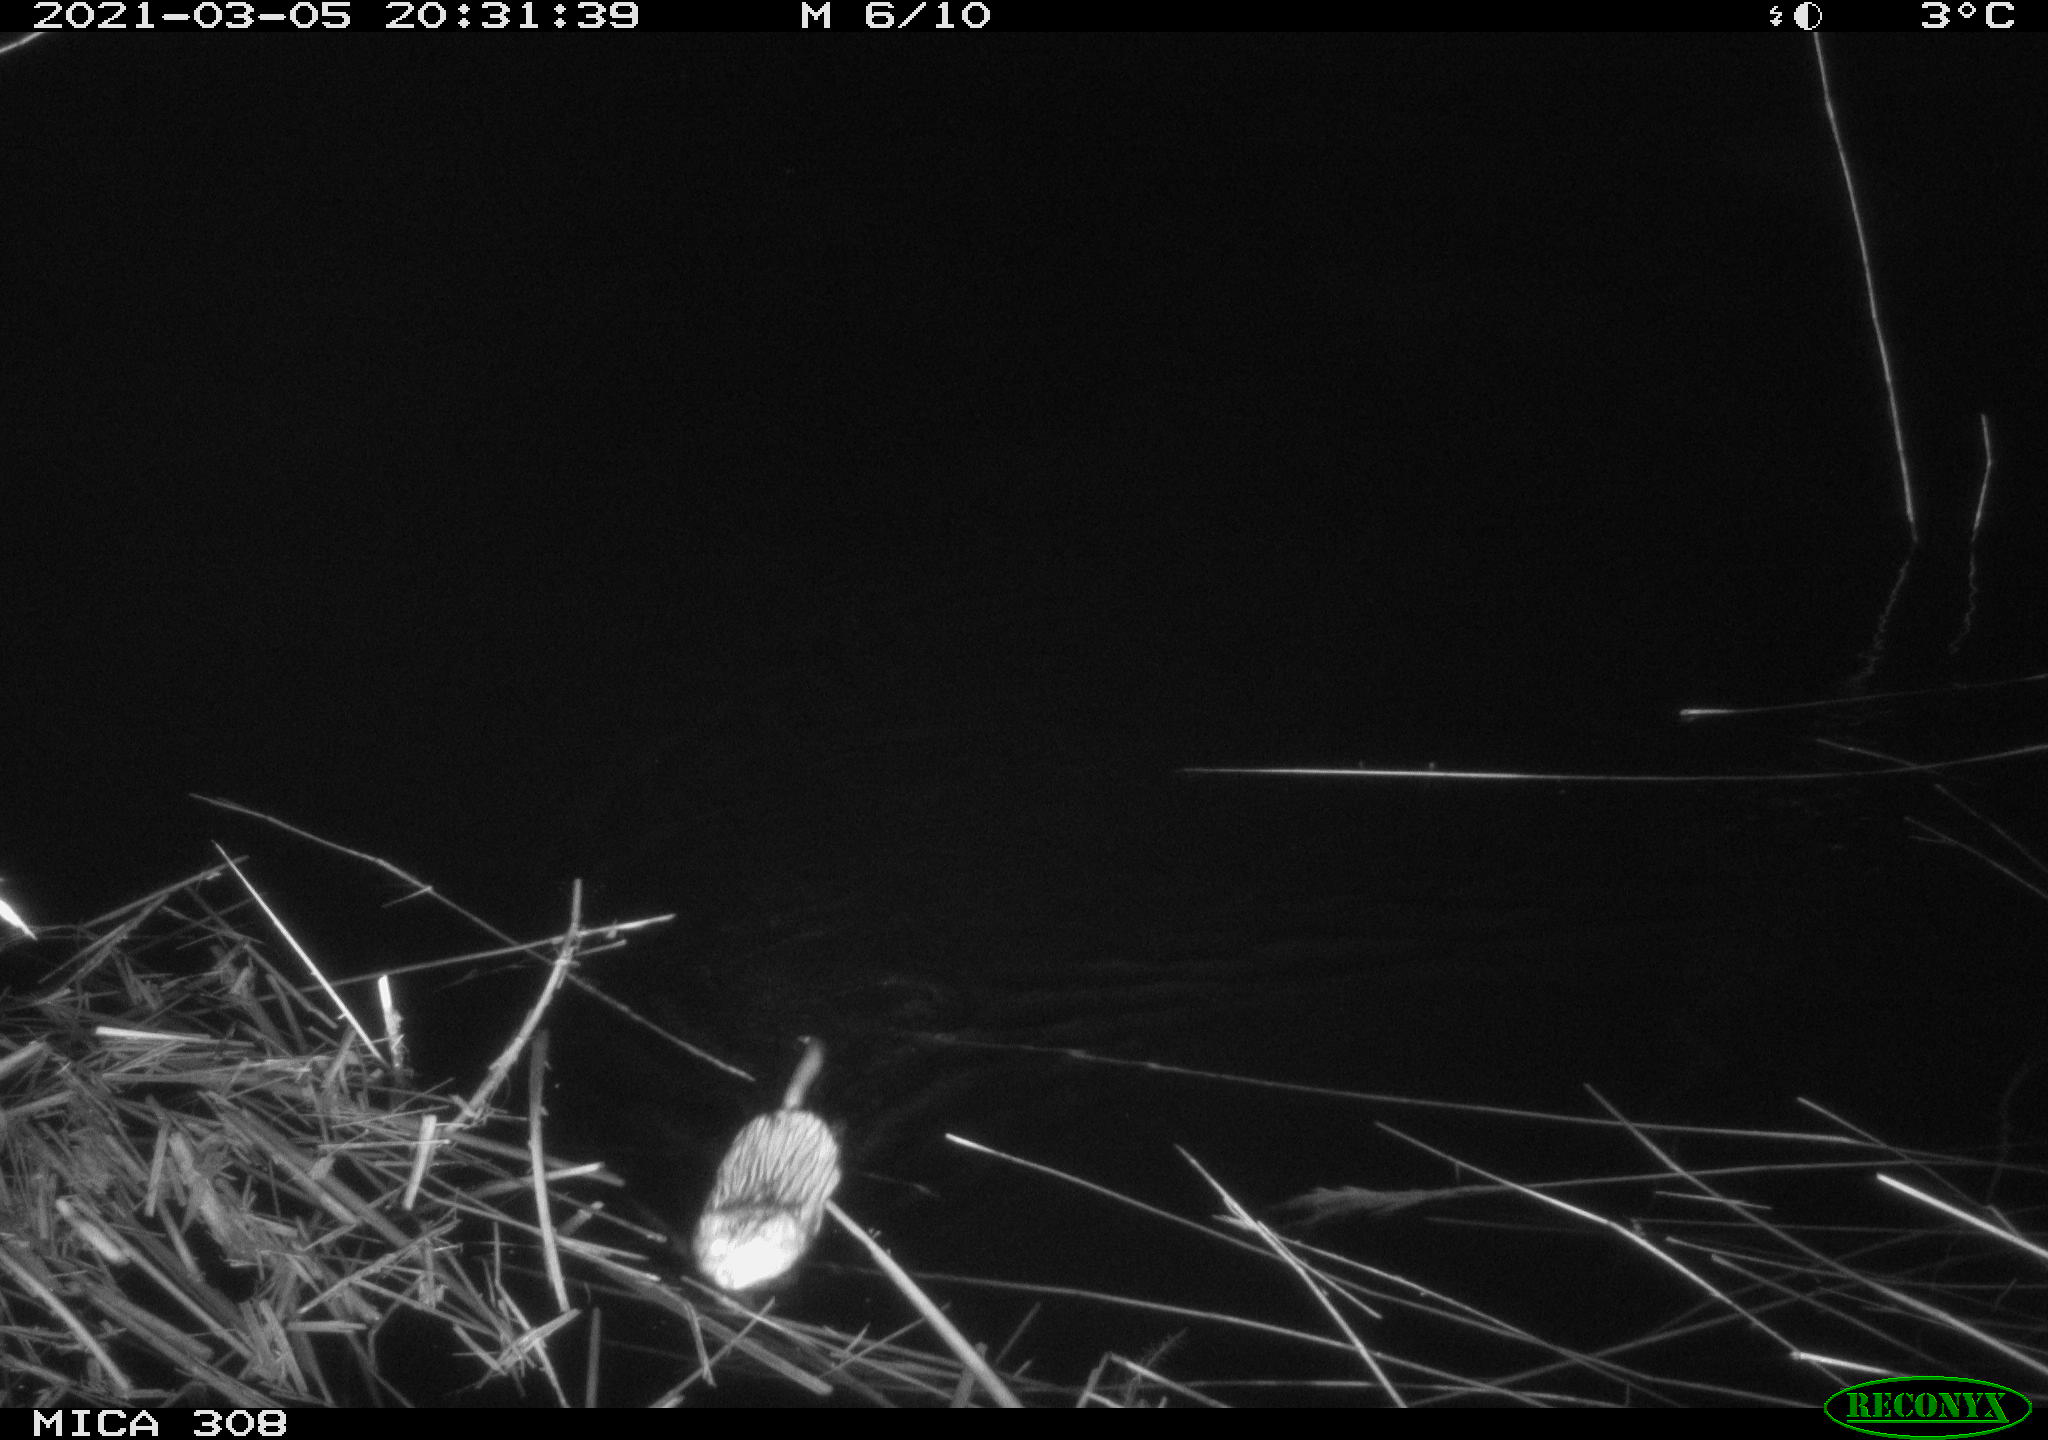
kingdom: Animalia
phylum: Chordata
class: Mammalia
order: Rodentia
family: Cricetidae
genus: Ondatra
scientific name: Ondatra zibethicus
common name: Muskrat
